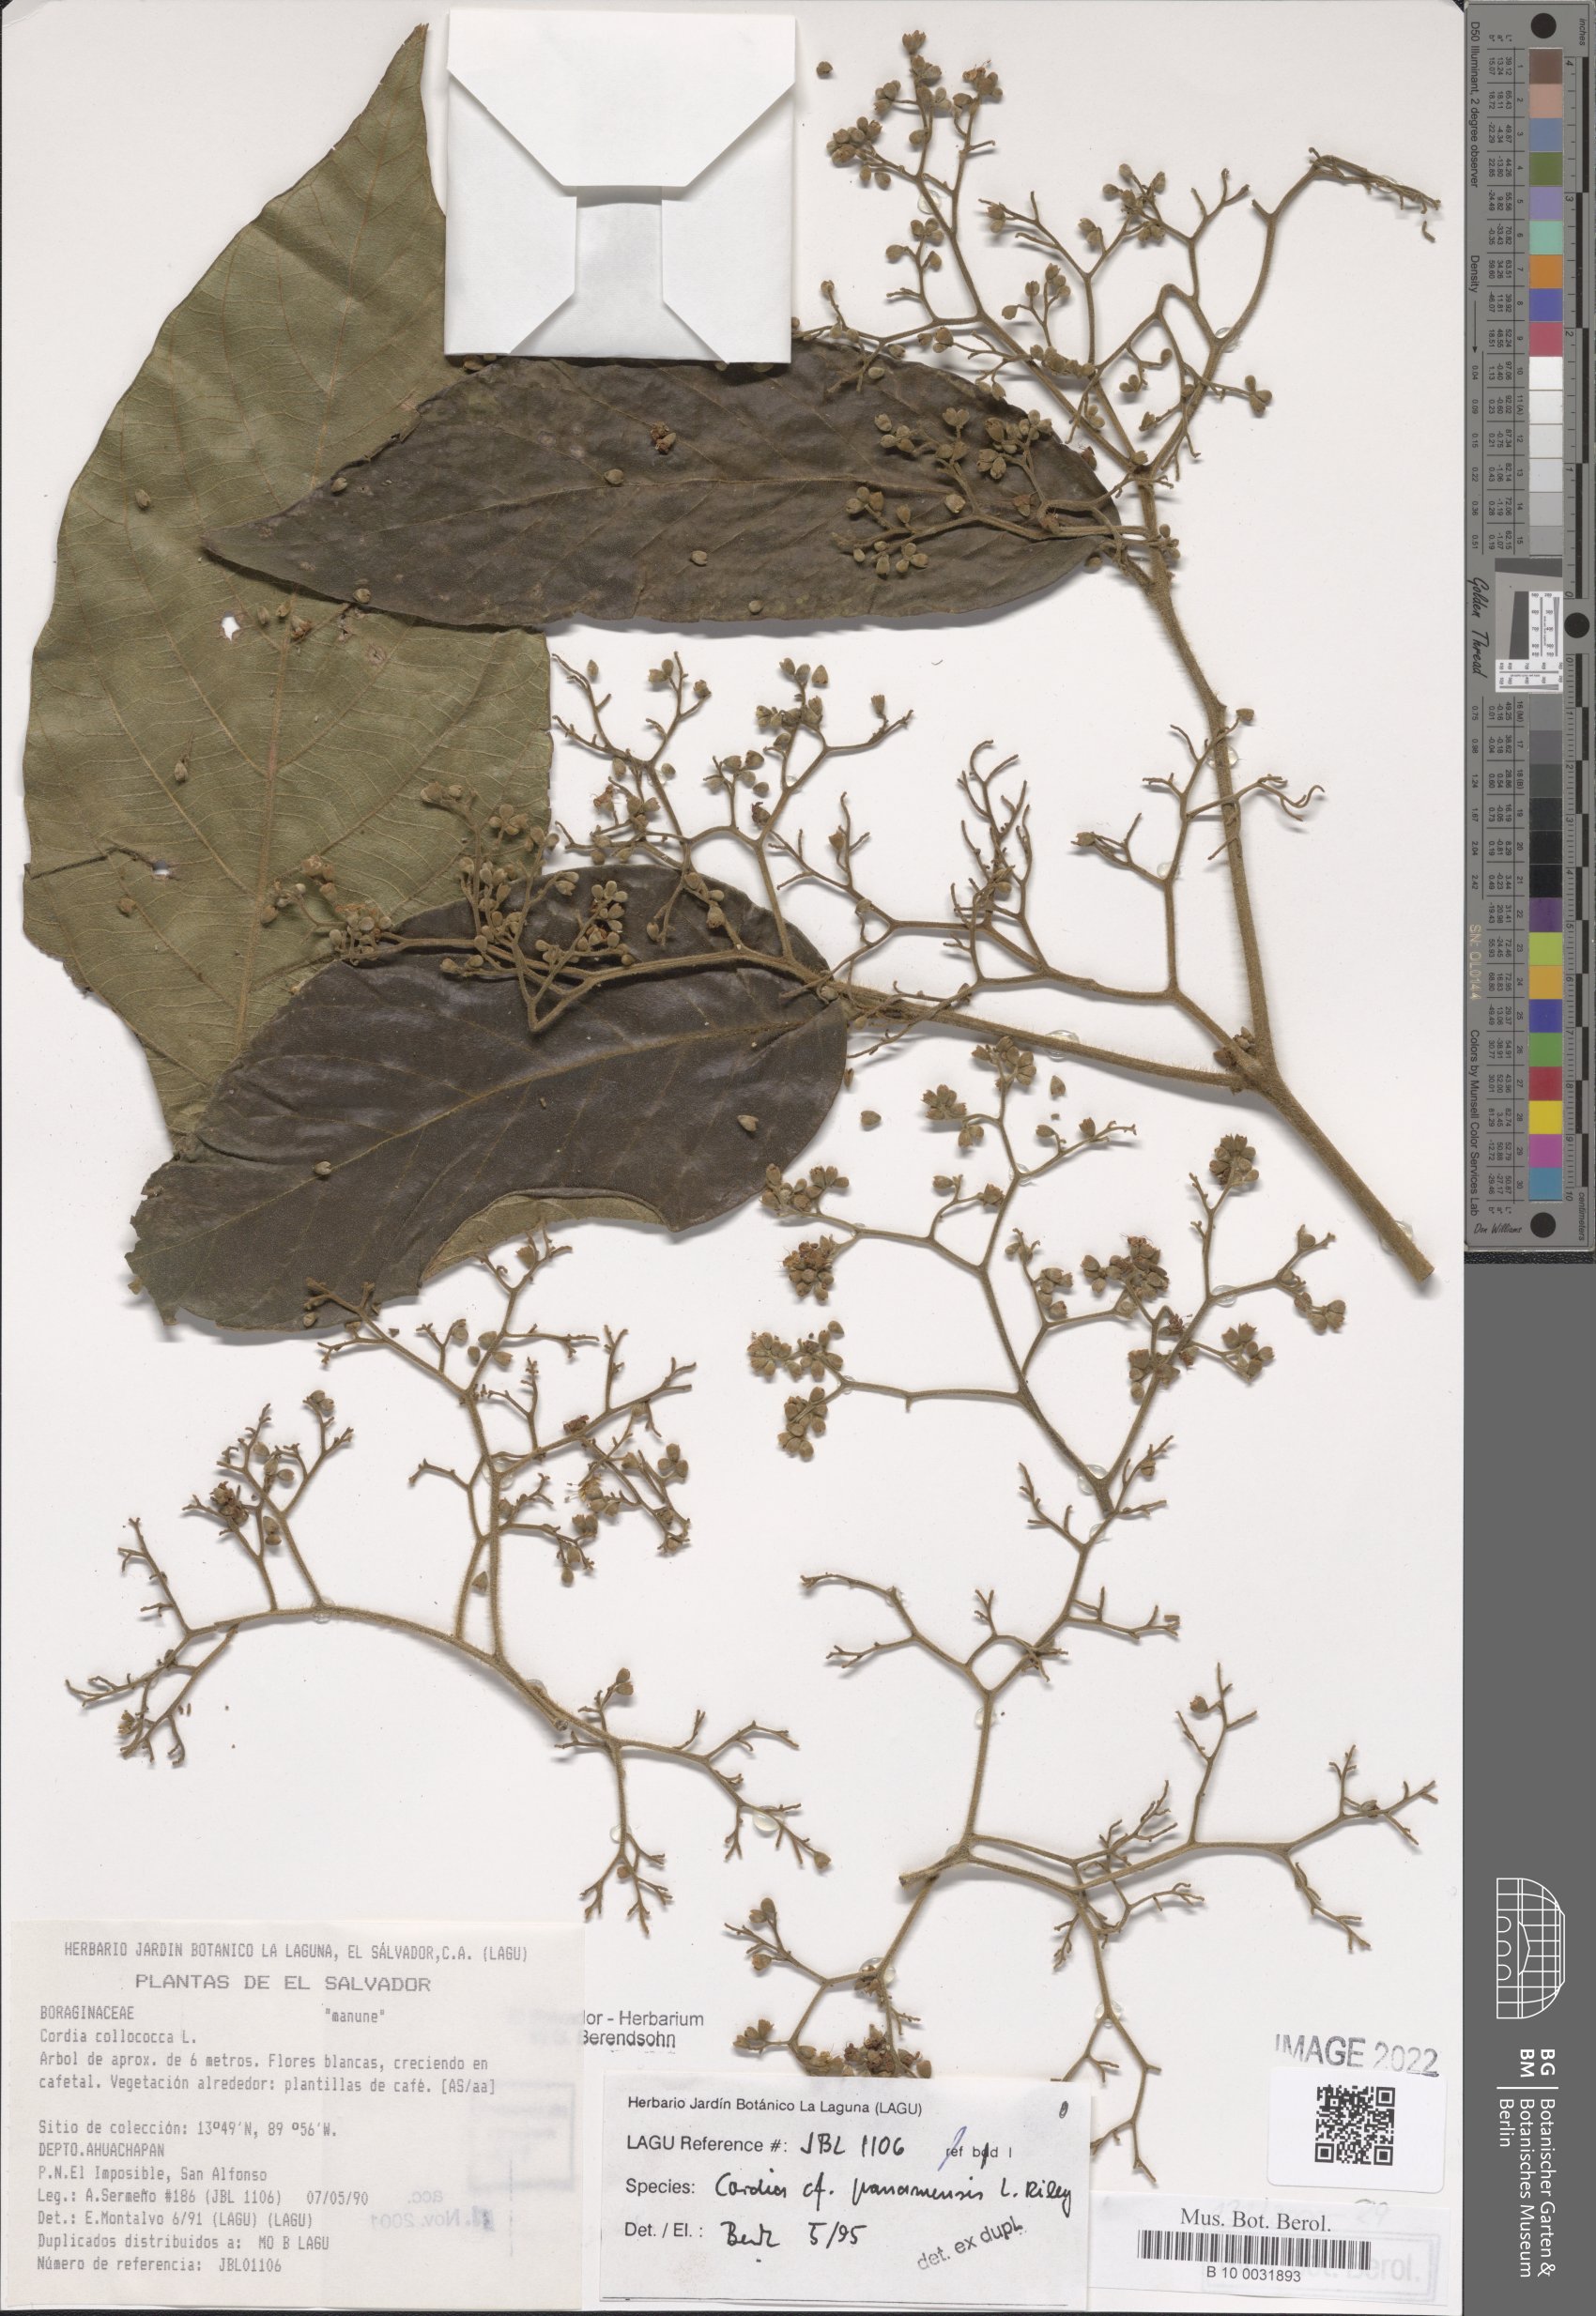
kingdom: Plantae
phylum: Tracheophyta
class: Magnoliopsida
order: Boraginales
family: Cordiaceae
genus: Cordia
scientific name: Cordia panamensis
